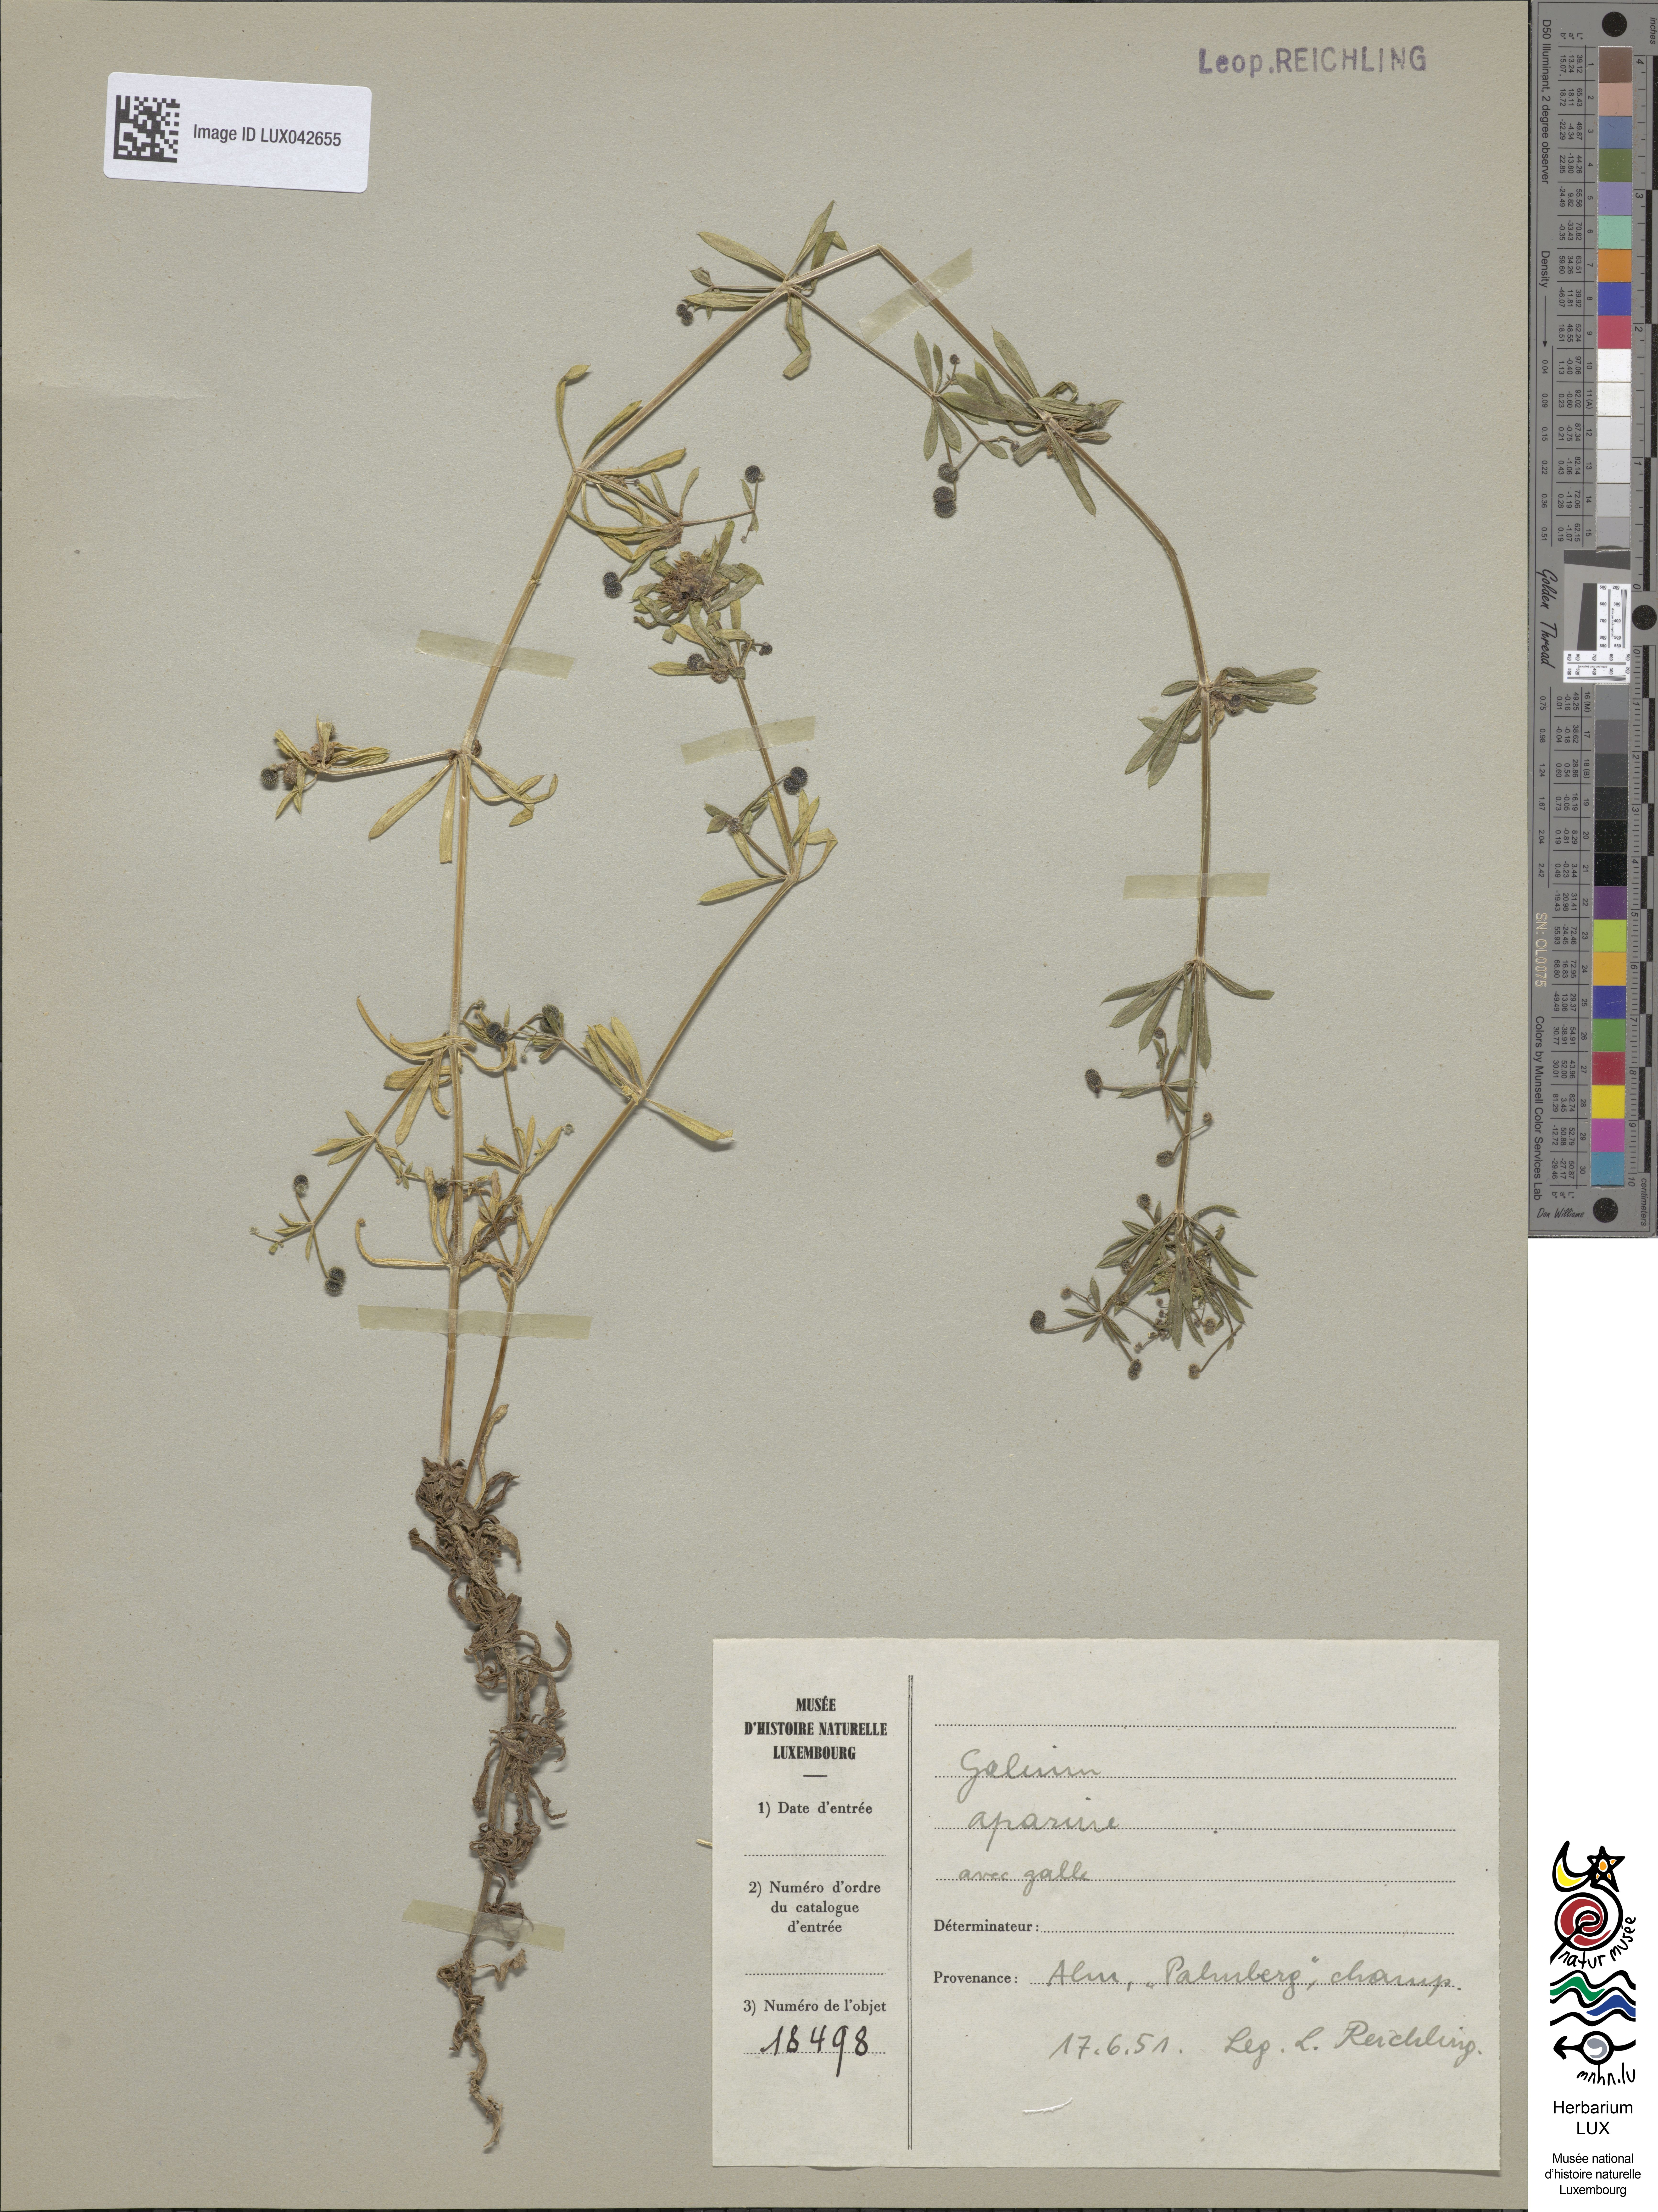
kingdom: Plantae
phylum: Tracheophyta
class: Magnoliopsida
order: Gentianales
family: Rubiaceae
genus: Galium
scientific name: Galium aparine
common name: Cleavers
